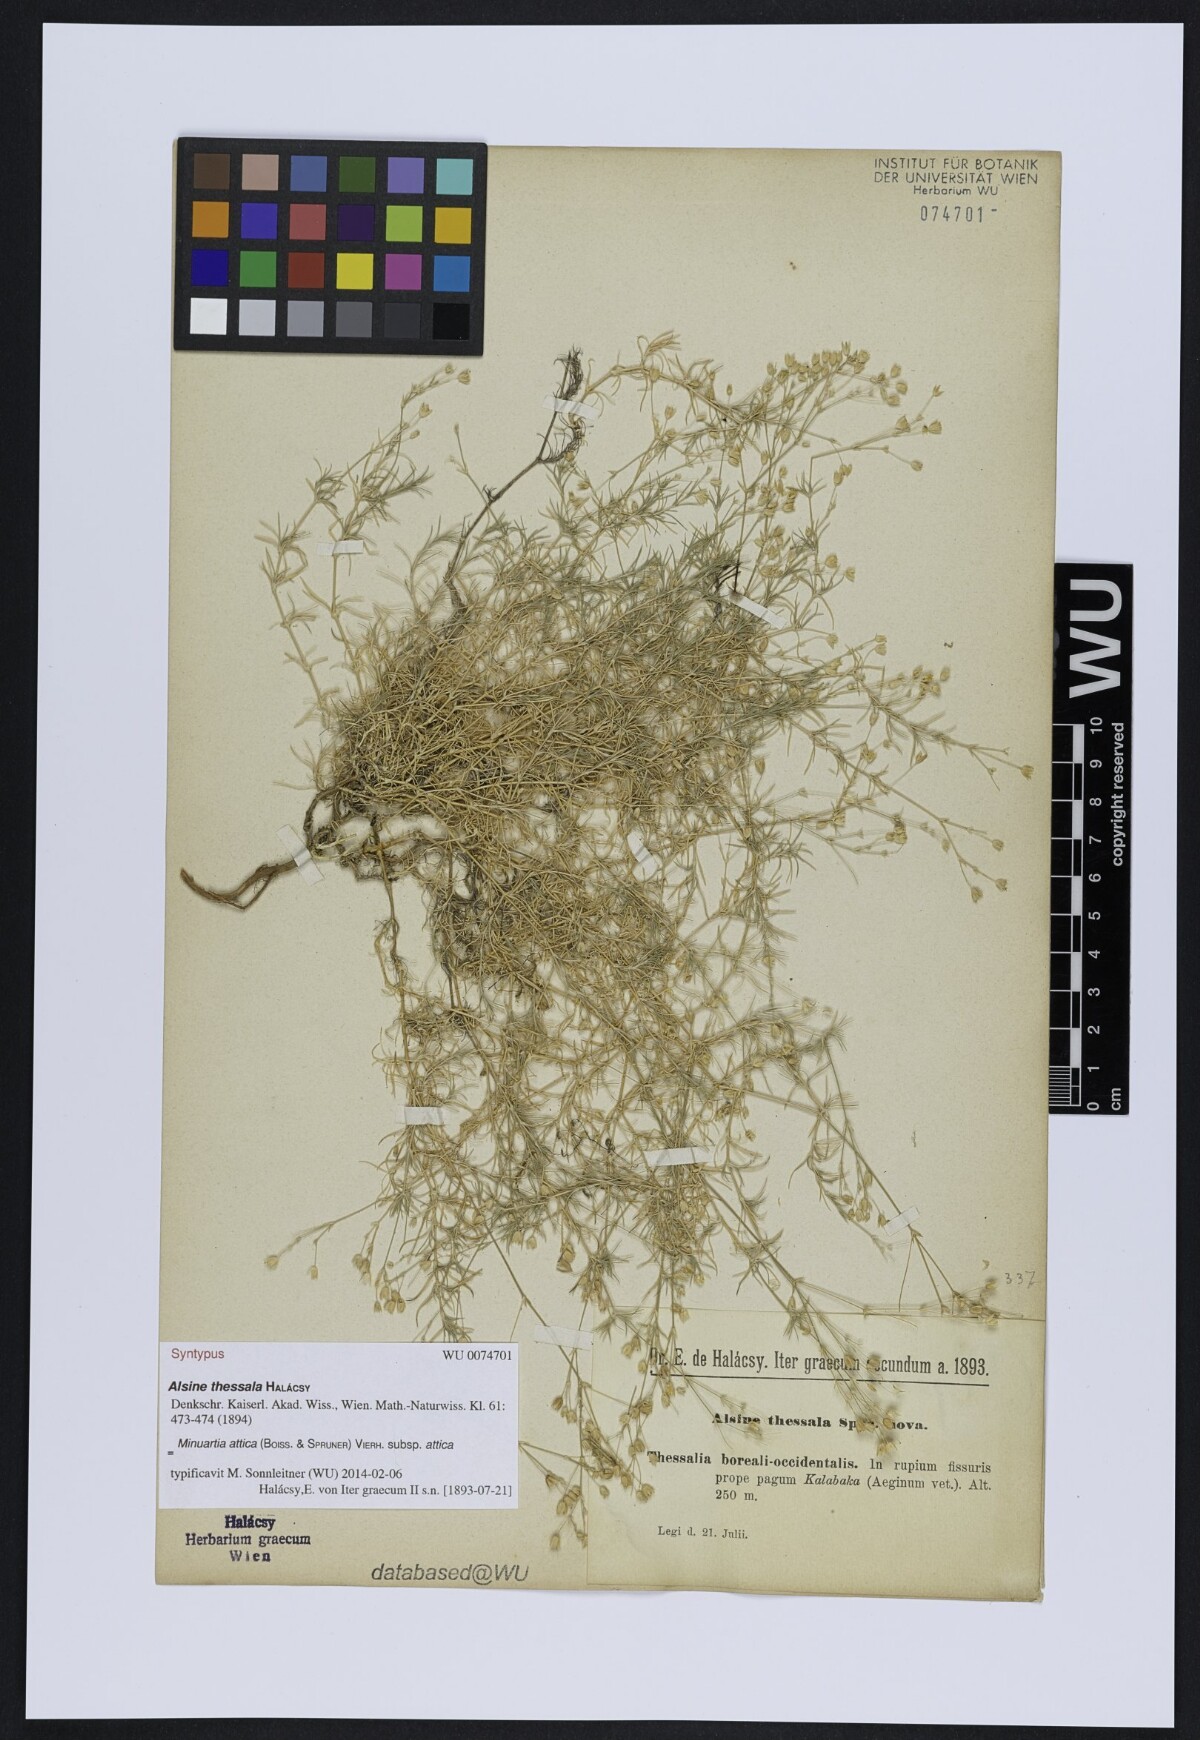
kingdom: Plantae
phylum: Tracheophyta
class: Magnoliopsida
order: Caryophyllales
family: Caryophyllaceae
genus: Sabulina
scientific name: Sabulina attica
